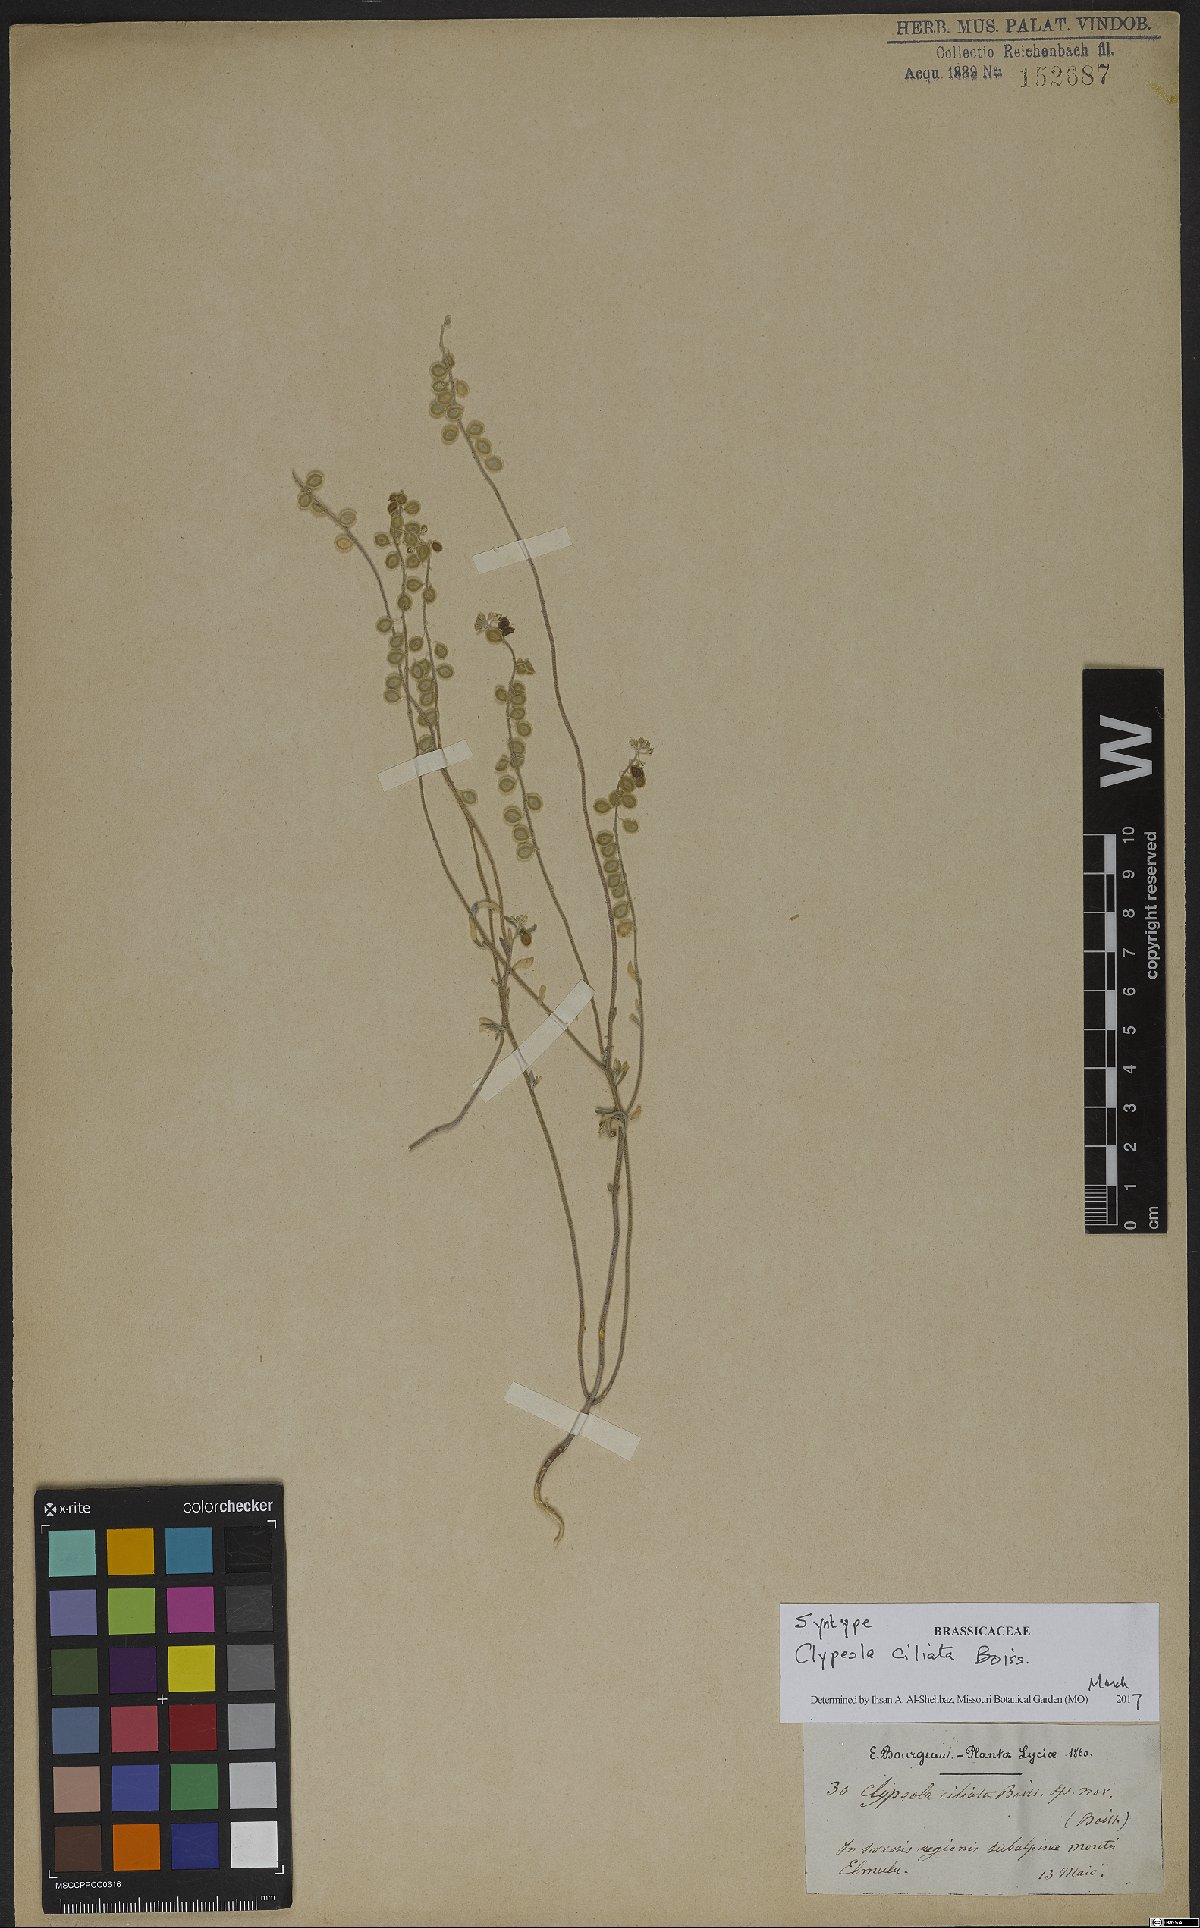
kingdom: Plantae
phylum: Tracheophyta
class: Magnoliopsida
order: Brassicales
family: Brassicaceae
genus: Clypeola
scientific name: Clypeola ciliata
